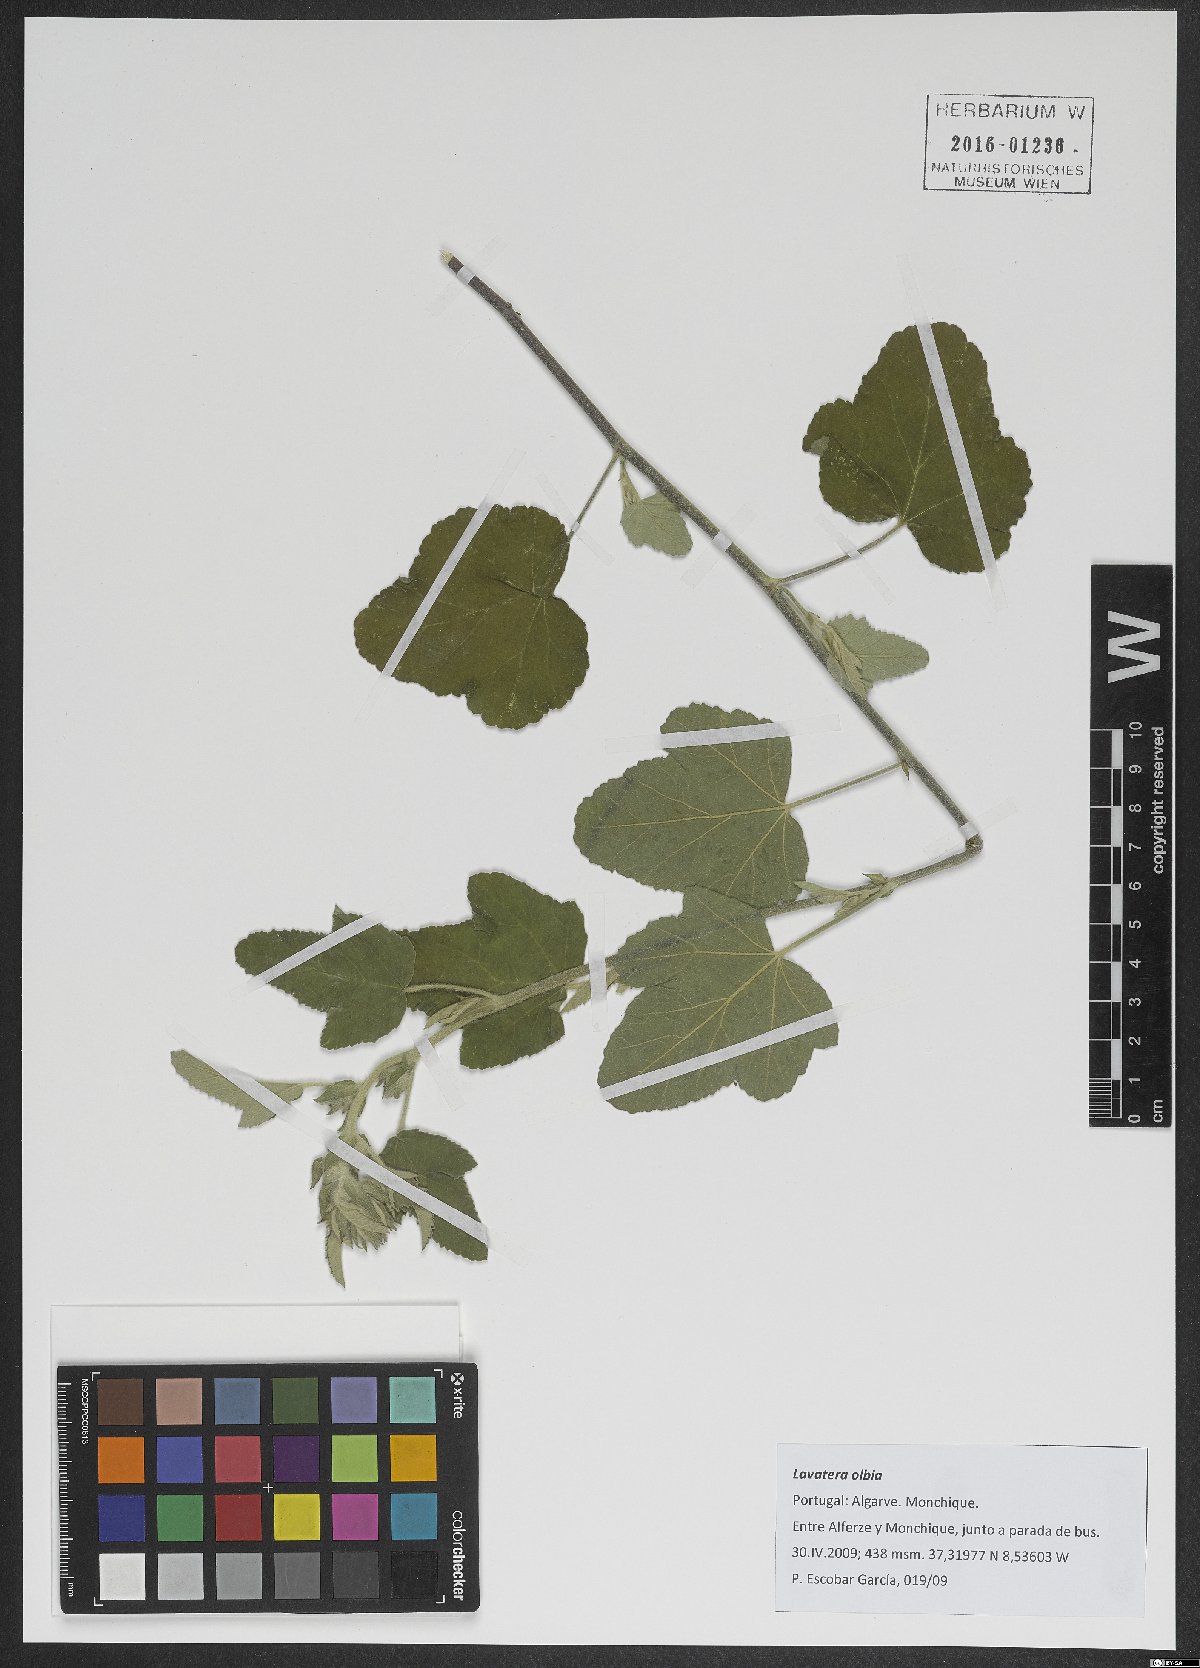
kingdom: Plantae
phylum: Tracheophyta
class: Magnoliopsida
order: Malvales
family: Malvaceae
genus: Malva
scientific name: Malva olbia
